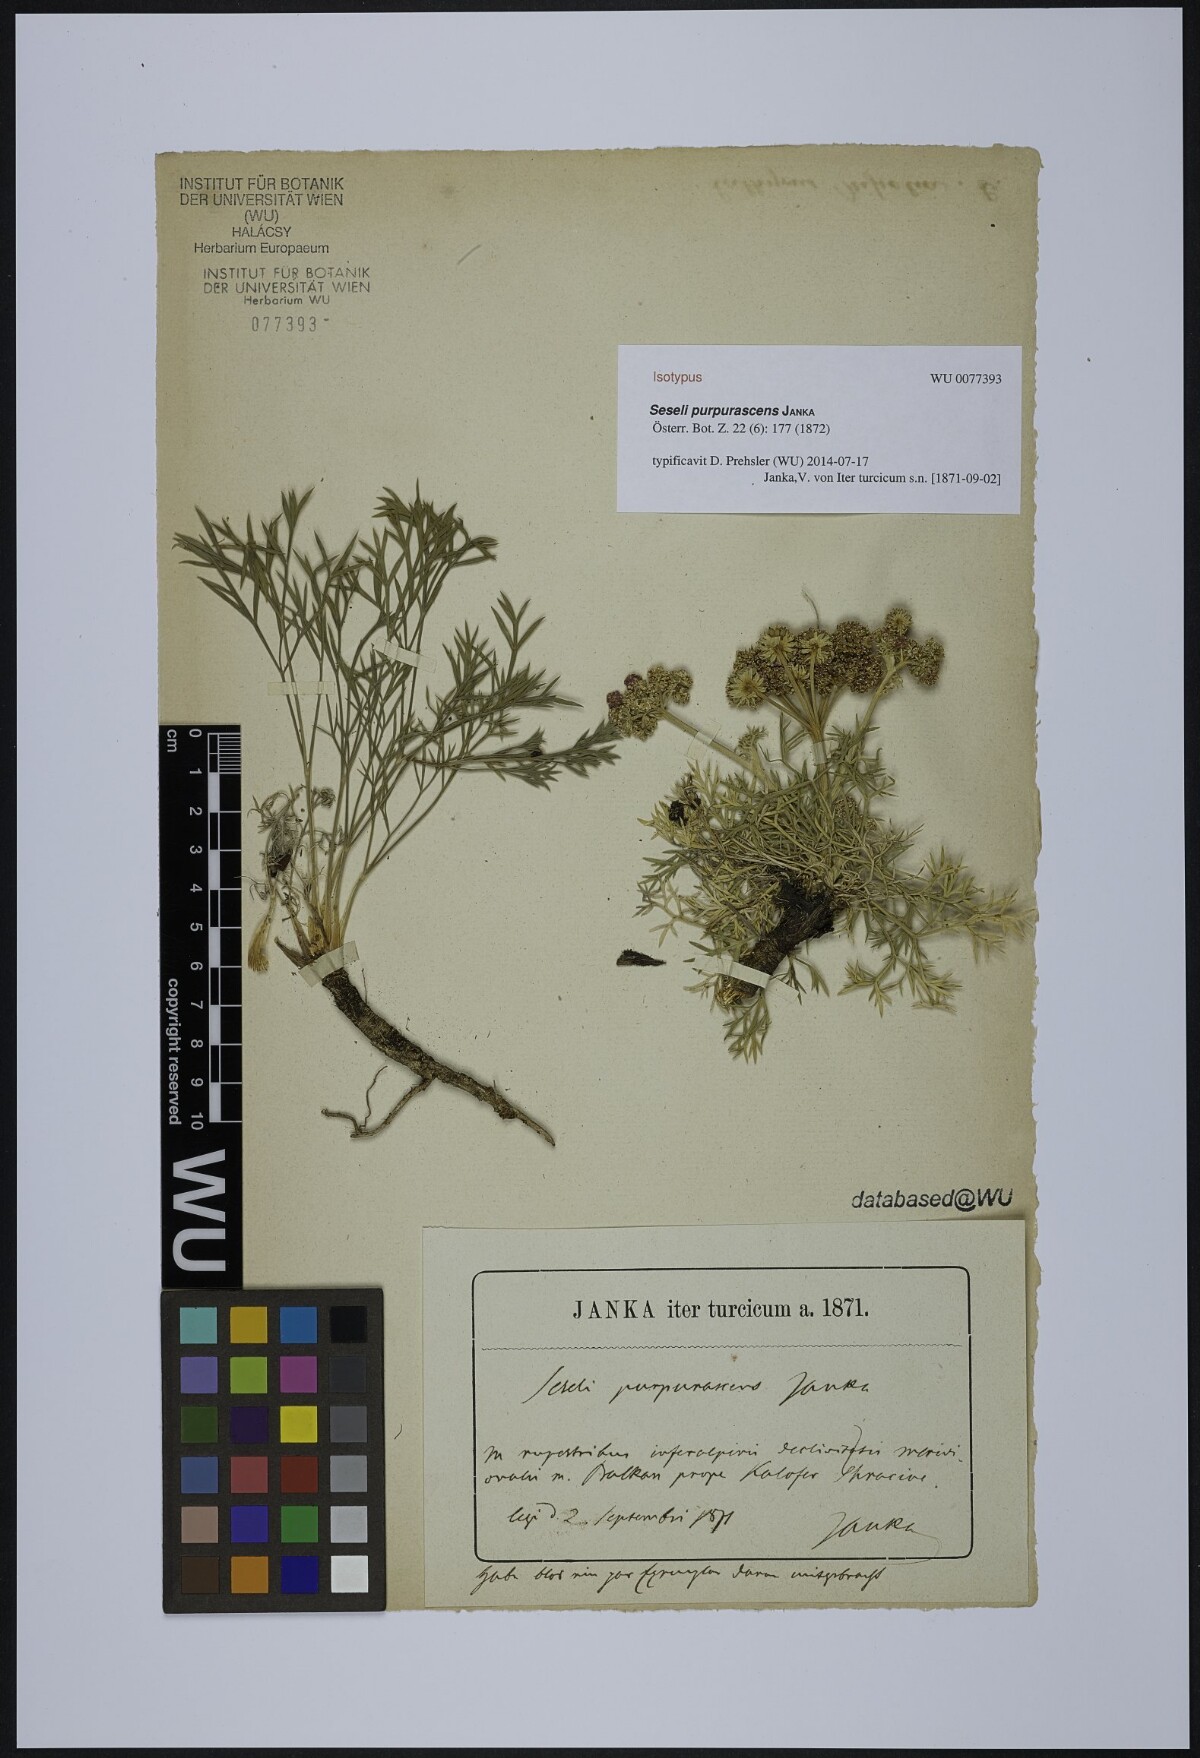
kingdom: Plantae
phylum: Tracheophyta
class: Magnoliopsida
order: Apiales
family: Apiaceae
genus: Seseli
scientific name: Seseli rigidum
